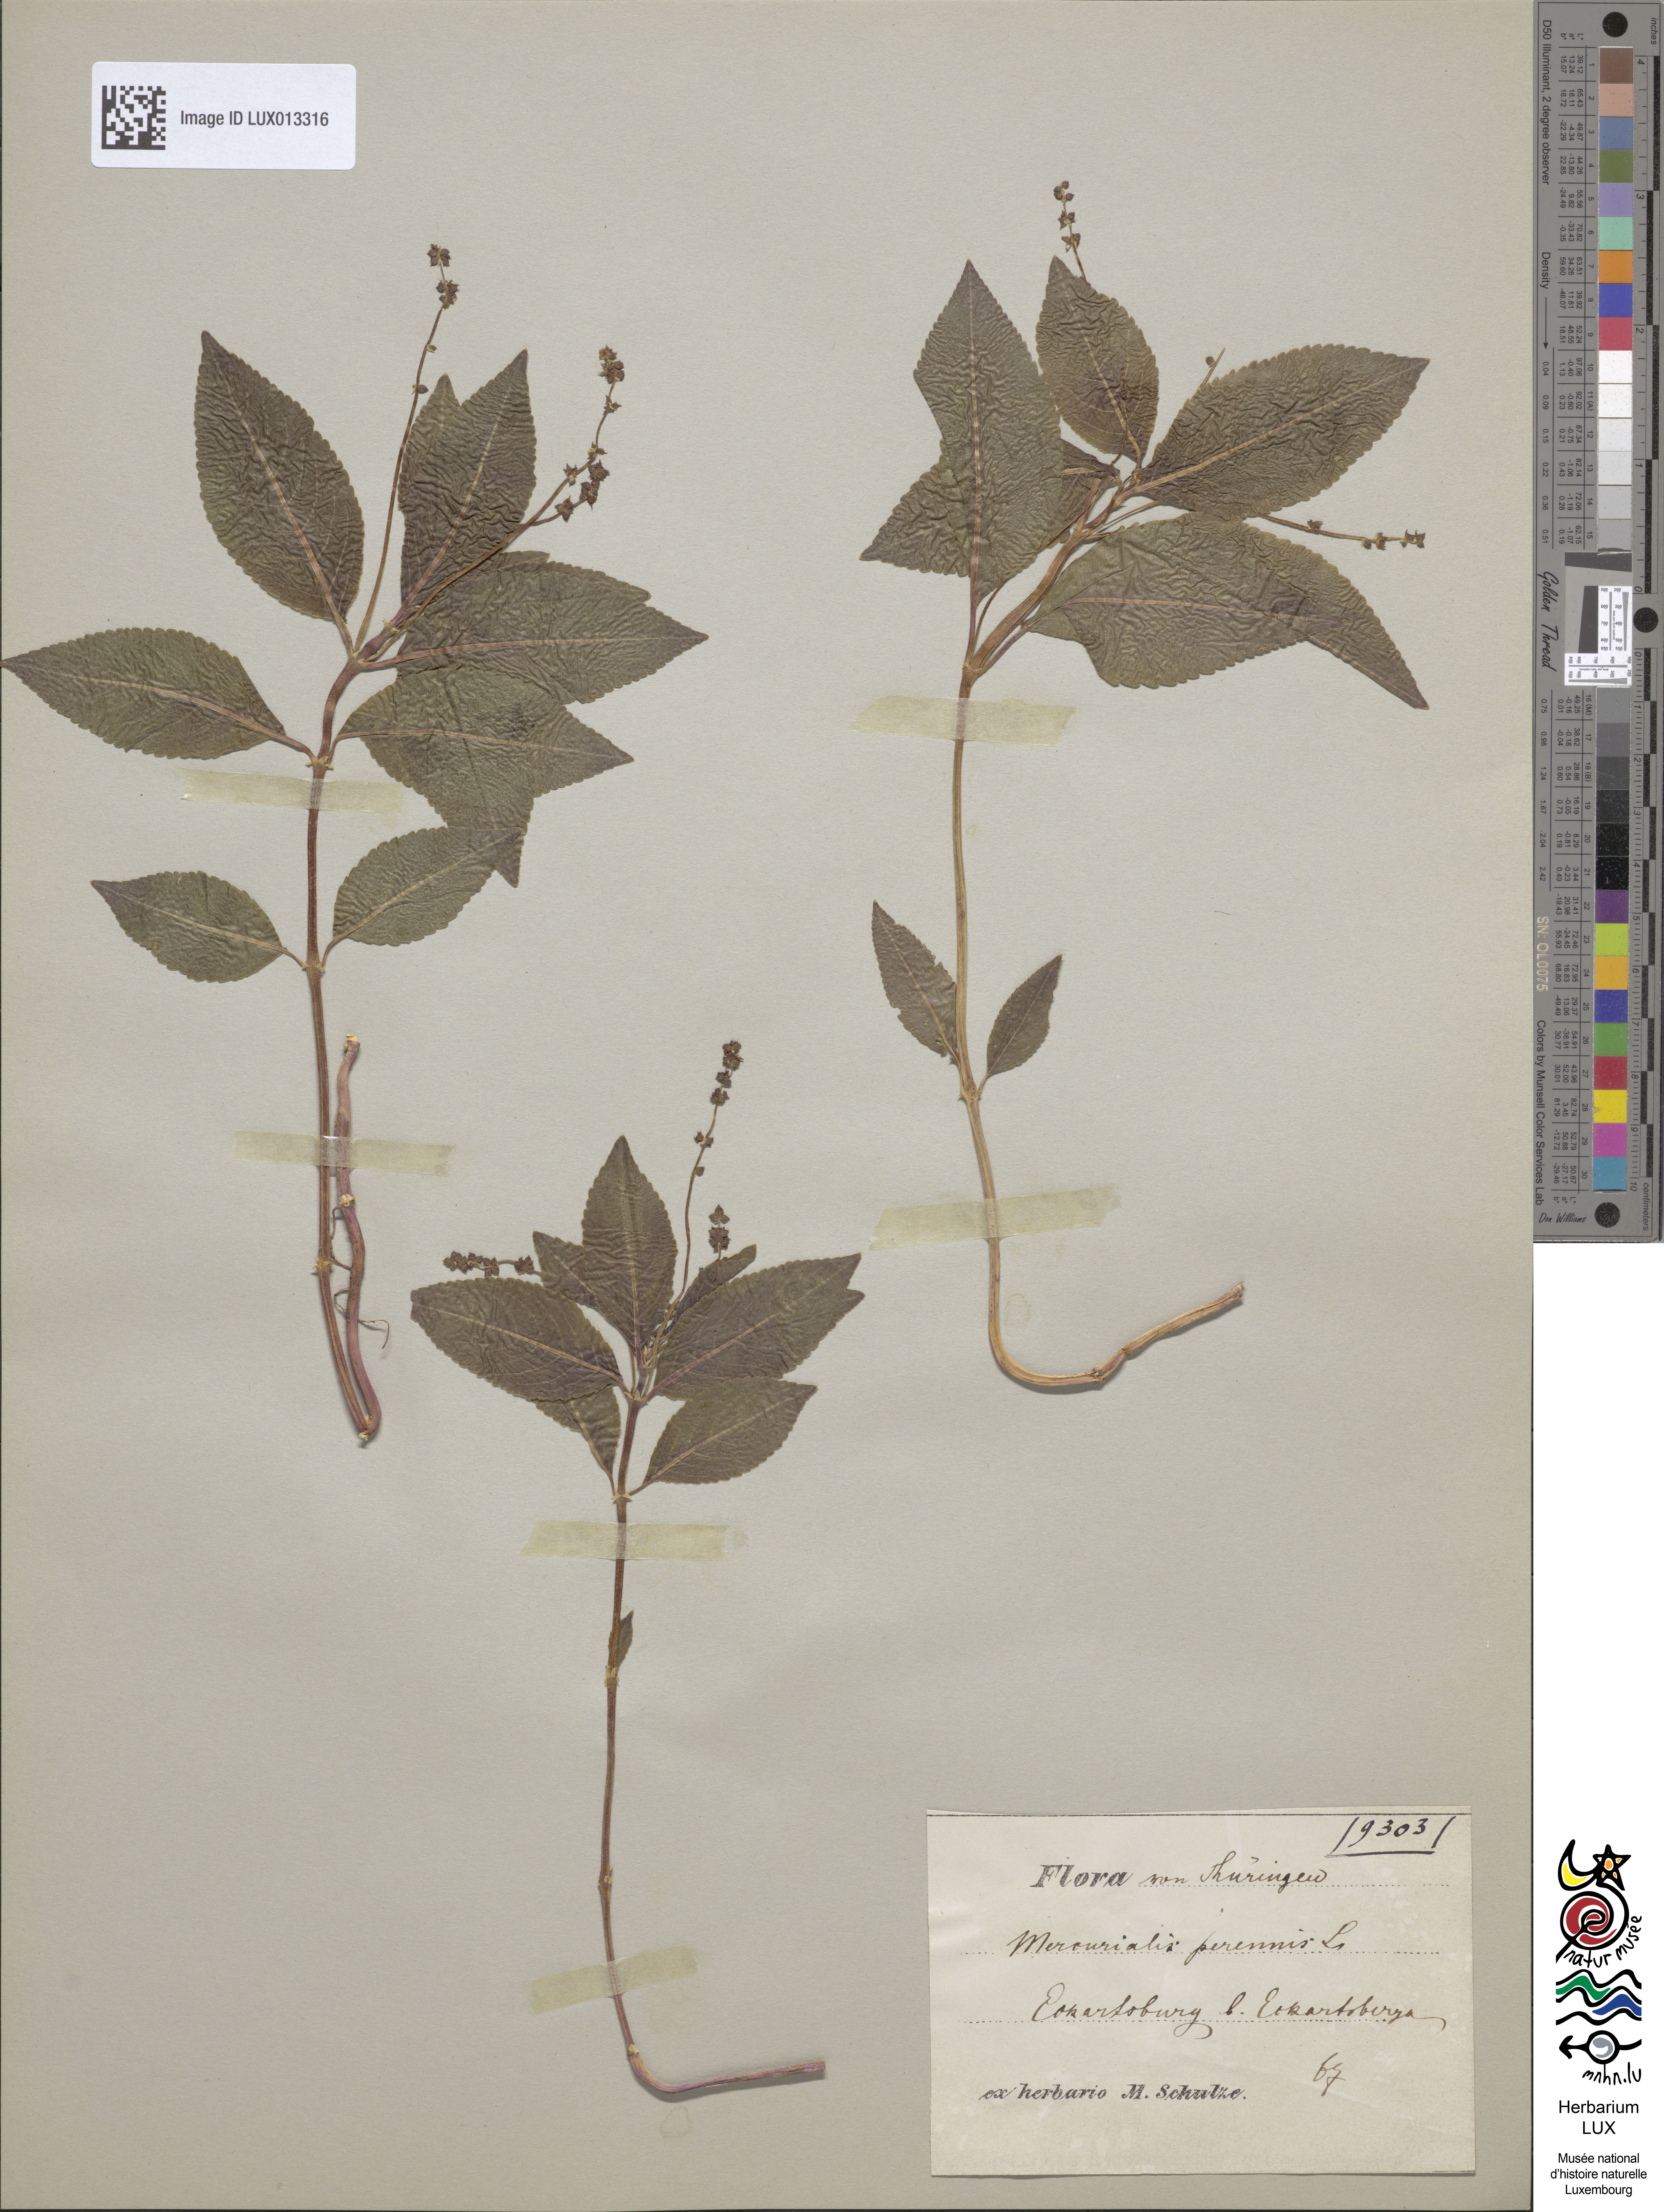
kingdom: Plantae
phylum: Tracheophyta
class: Magnoliopsida
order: Malpighiales
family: Euphorbiaceae
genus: Mercurialis
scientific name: Mercurialis perennis
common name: Dog mercury
